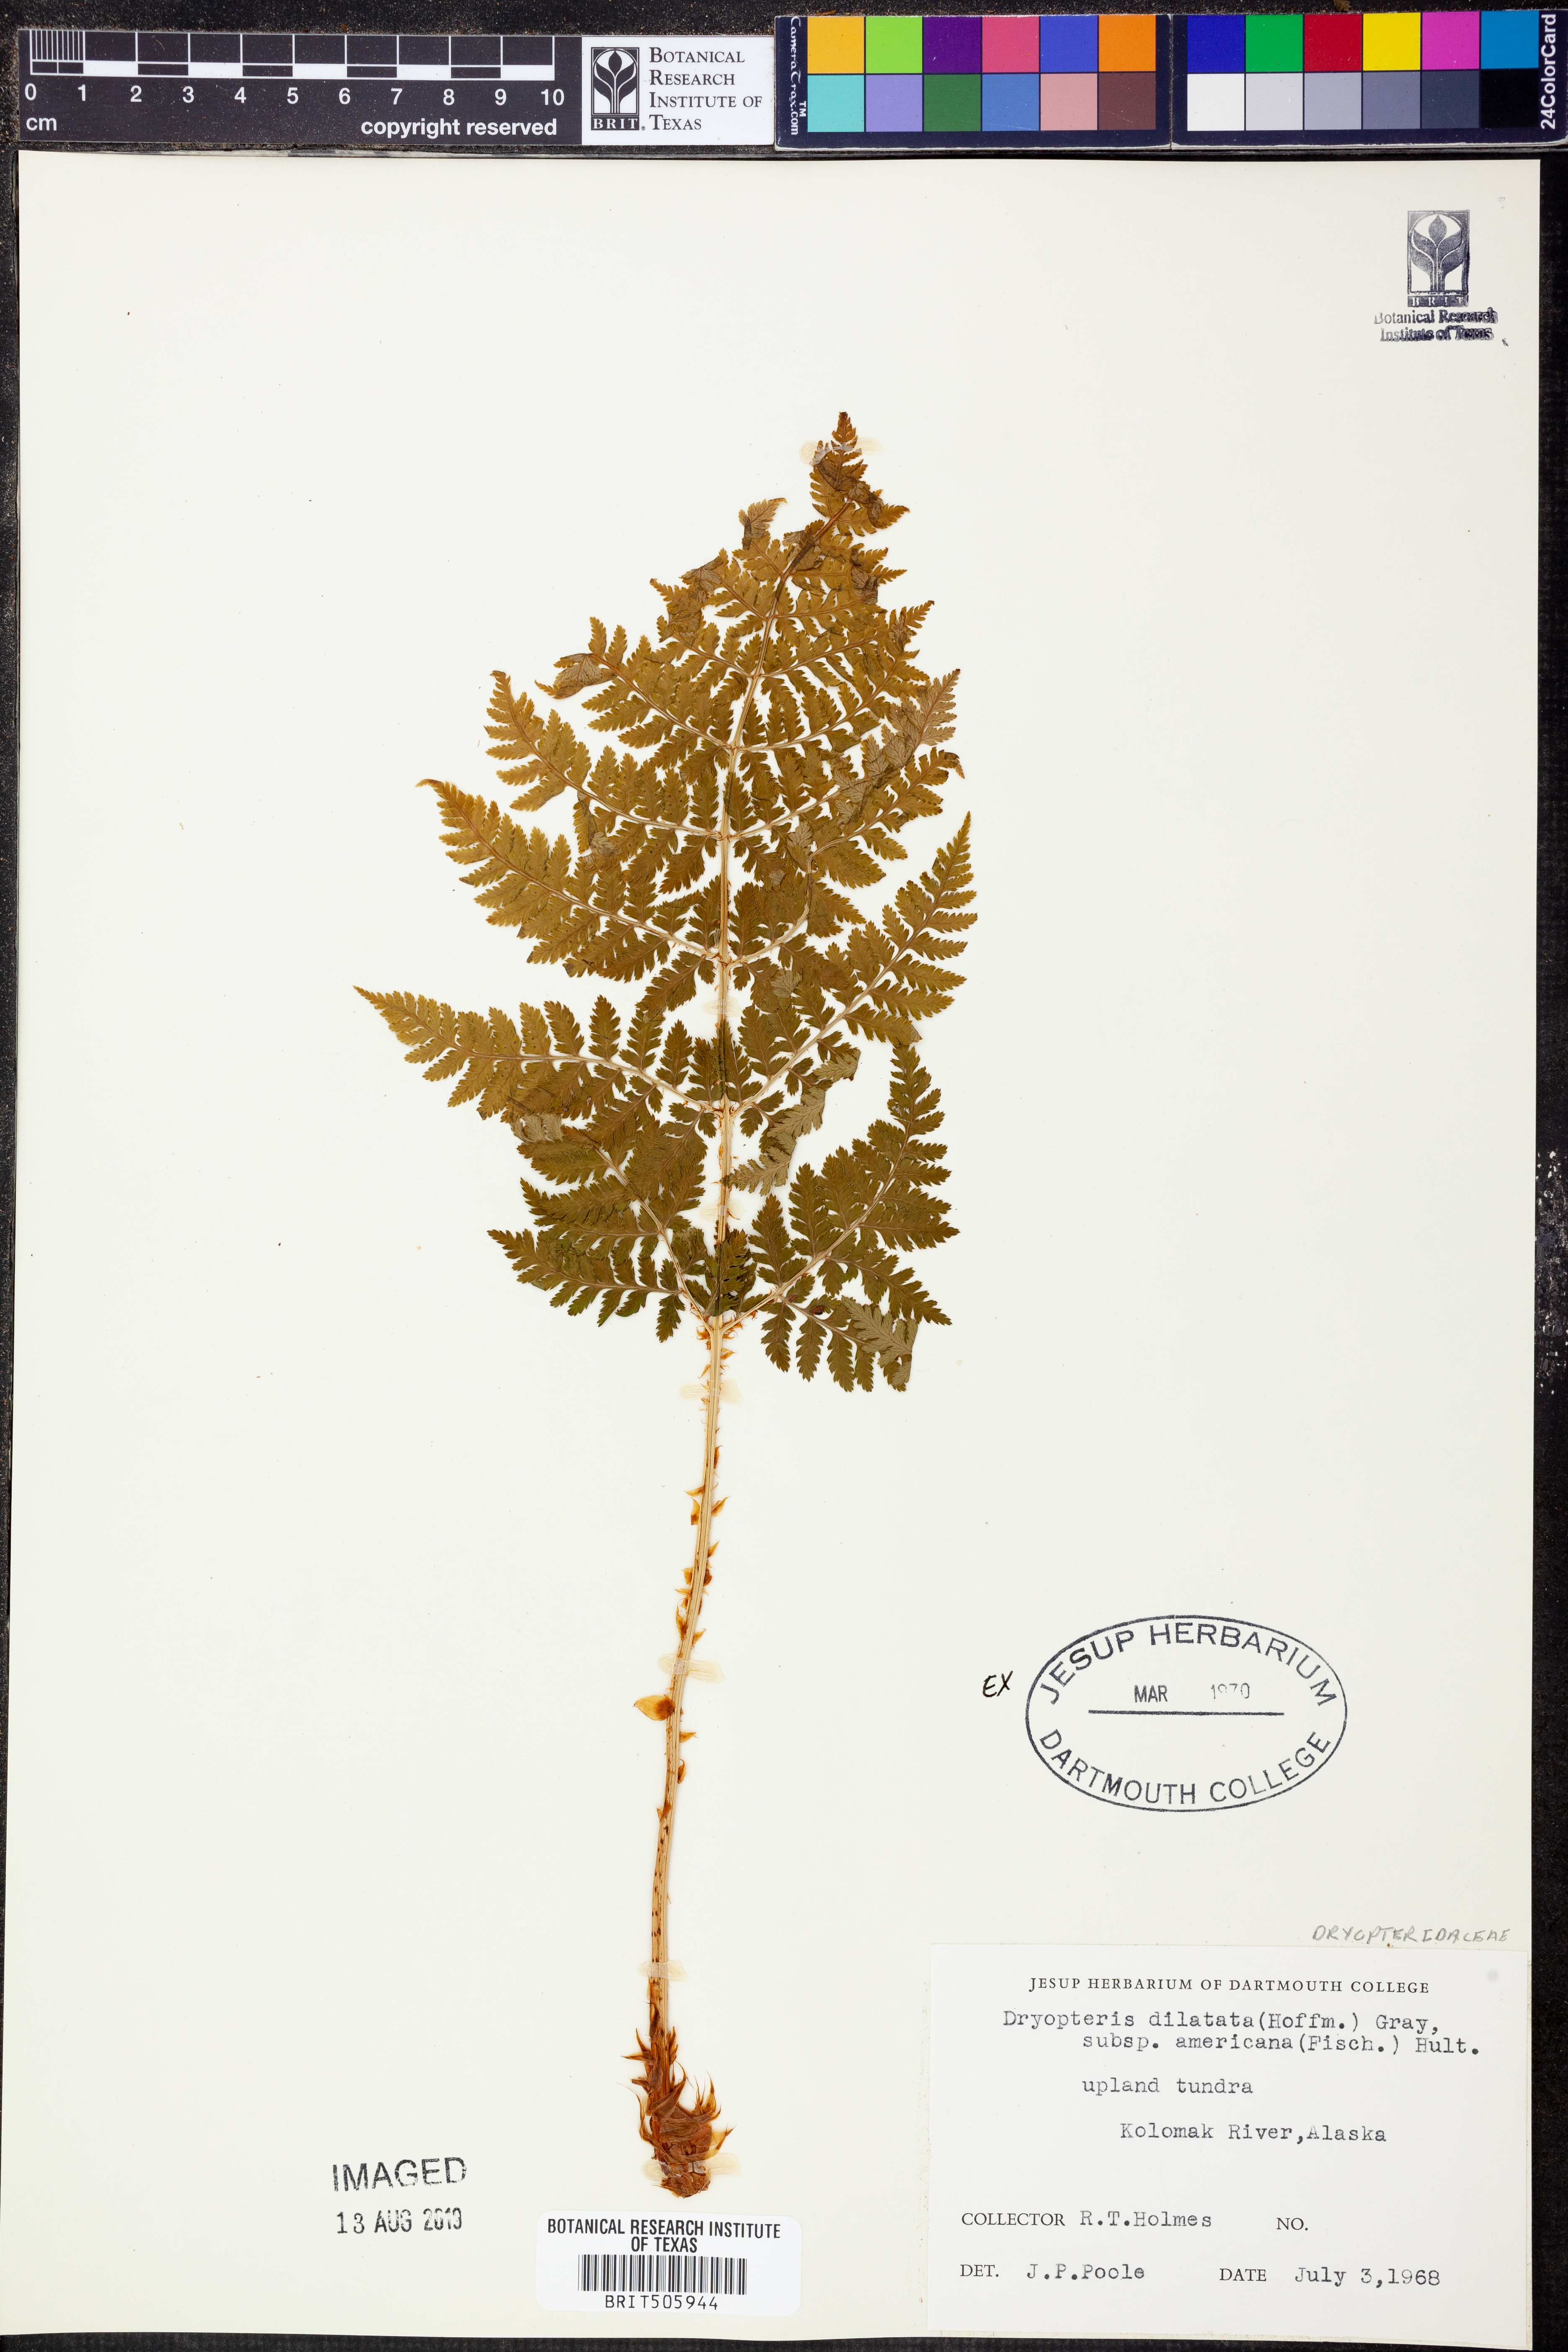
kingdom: Plantae
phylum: Tracheophyta
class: Polypodiopsida
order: Polypodiales
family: Dryopteridaceae
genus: Dryopteris
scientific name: Dryopteris campyloptera
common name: Mountain wood fern
